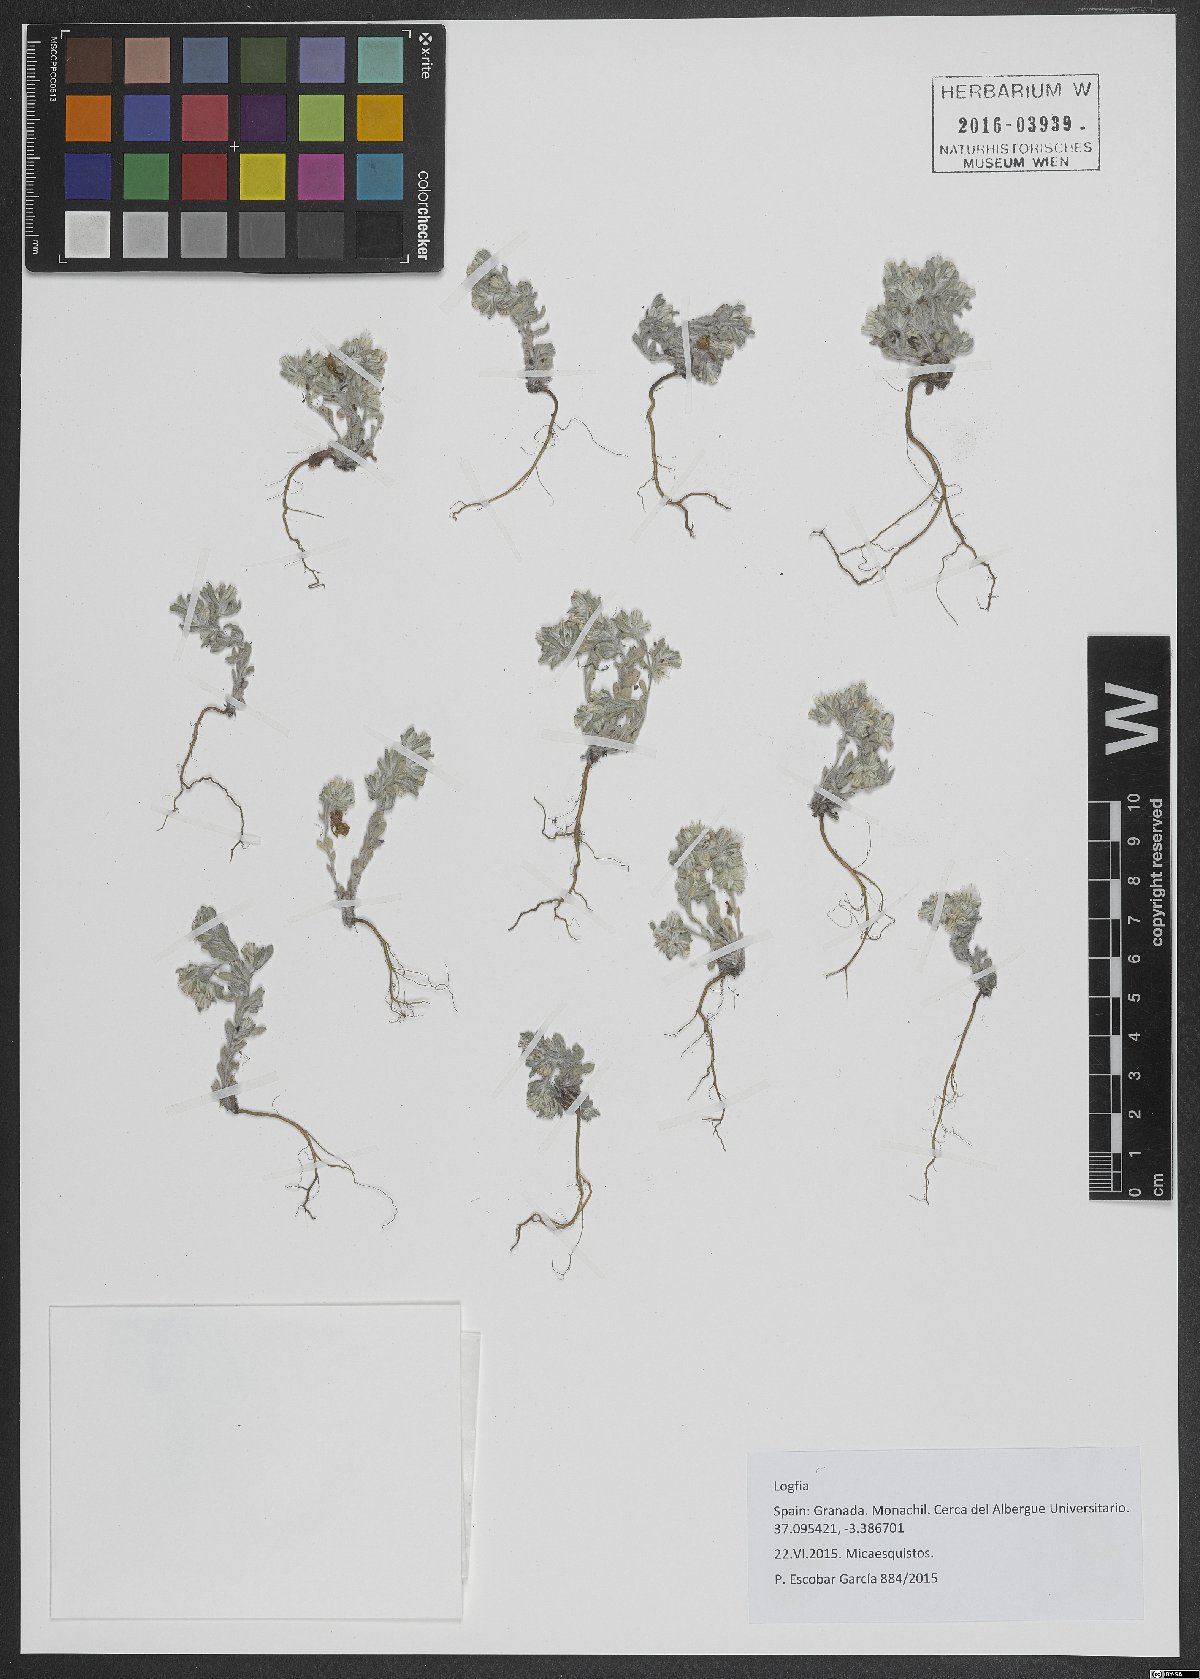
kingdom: Plantae
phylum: Tracheophyta
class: Magnoliopsida
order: Asterales
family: Asteraceae
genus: Logfia
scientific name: Logfia
